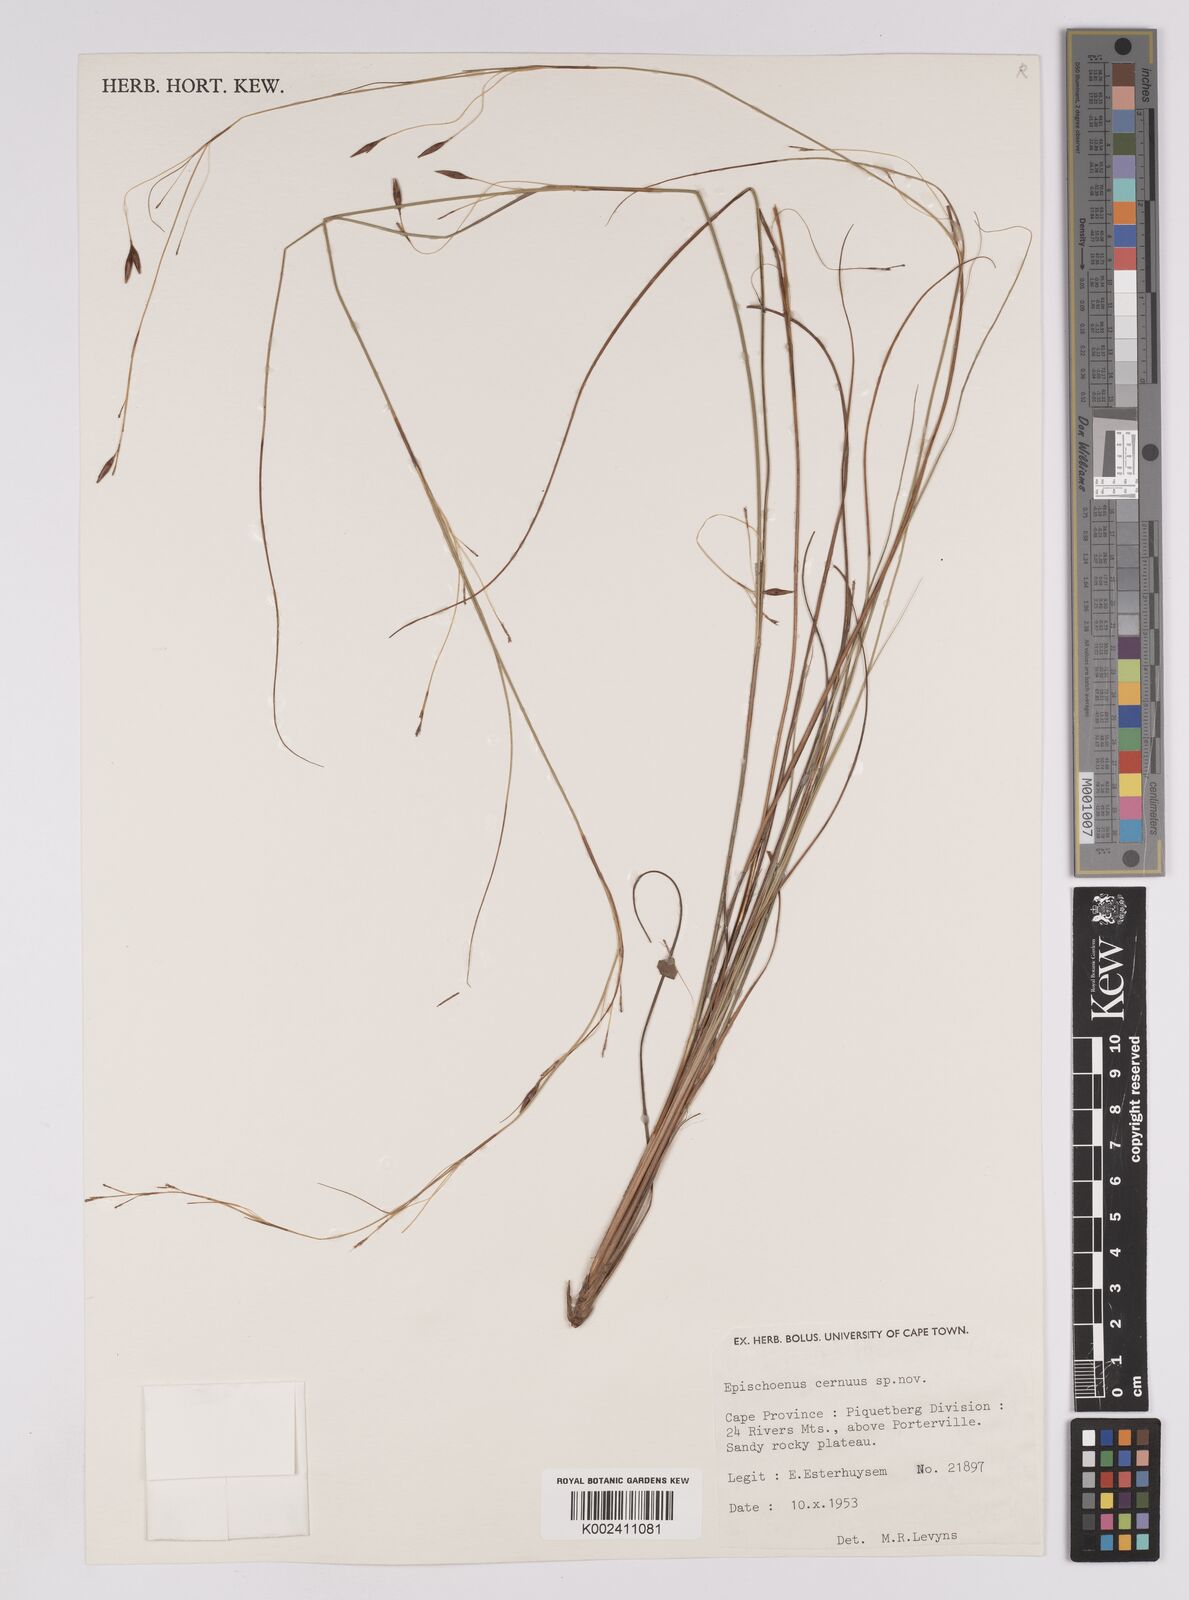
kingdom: Plantae
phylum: Tracheophyta
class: Liliopsida
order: Poales
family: Cyperaceae
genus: Tetraria
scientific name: Tetraria cernua
